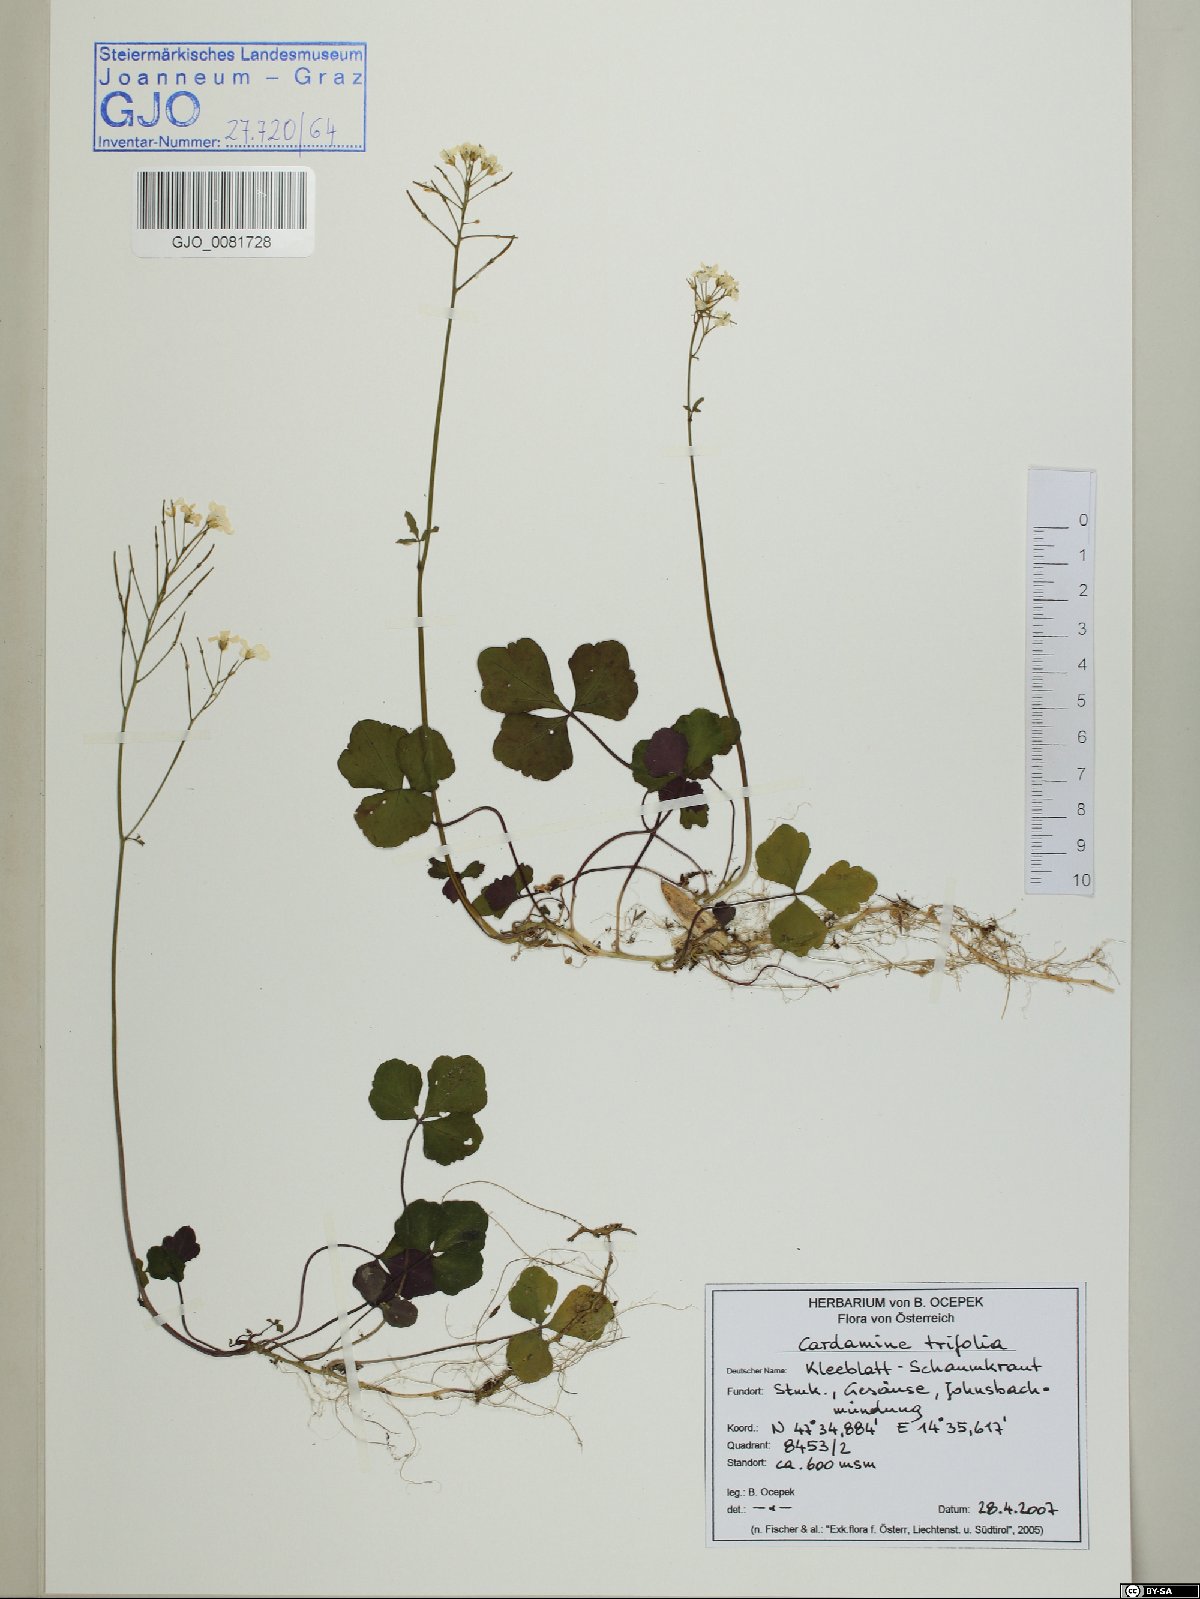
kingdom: Plantae
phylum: Tracheophyta
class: Magnoliopsida
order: Brassicales
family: Brassicaceae
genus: Cardamine
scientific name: Cardamine trifolia
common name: Trefoil cress
